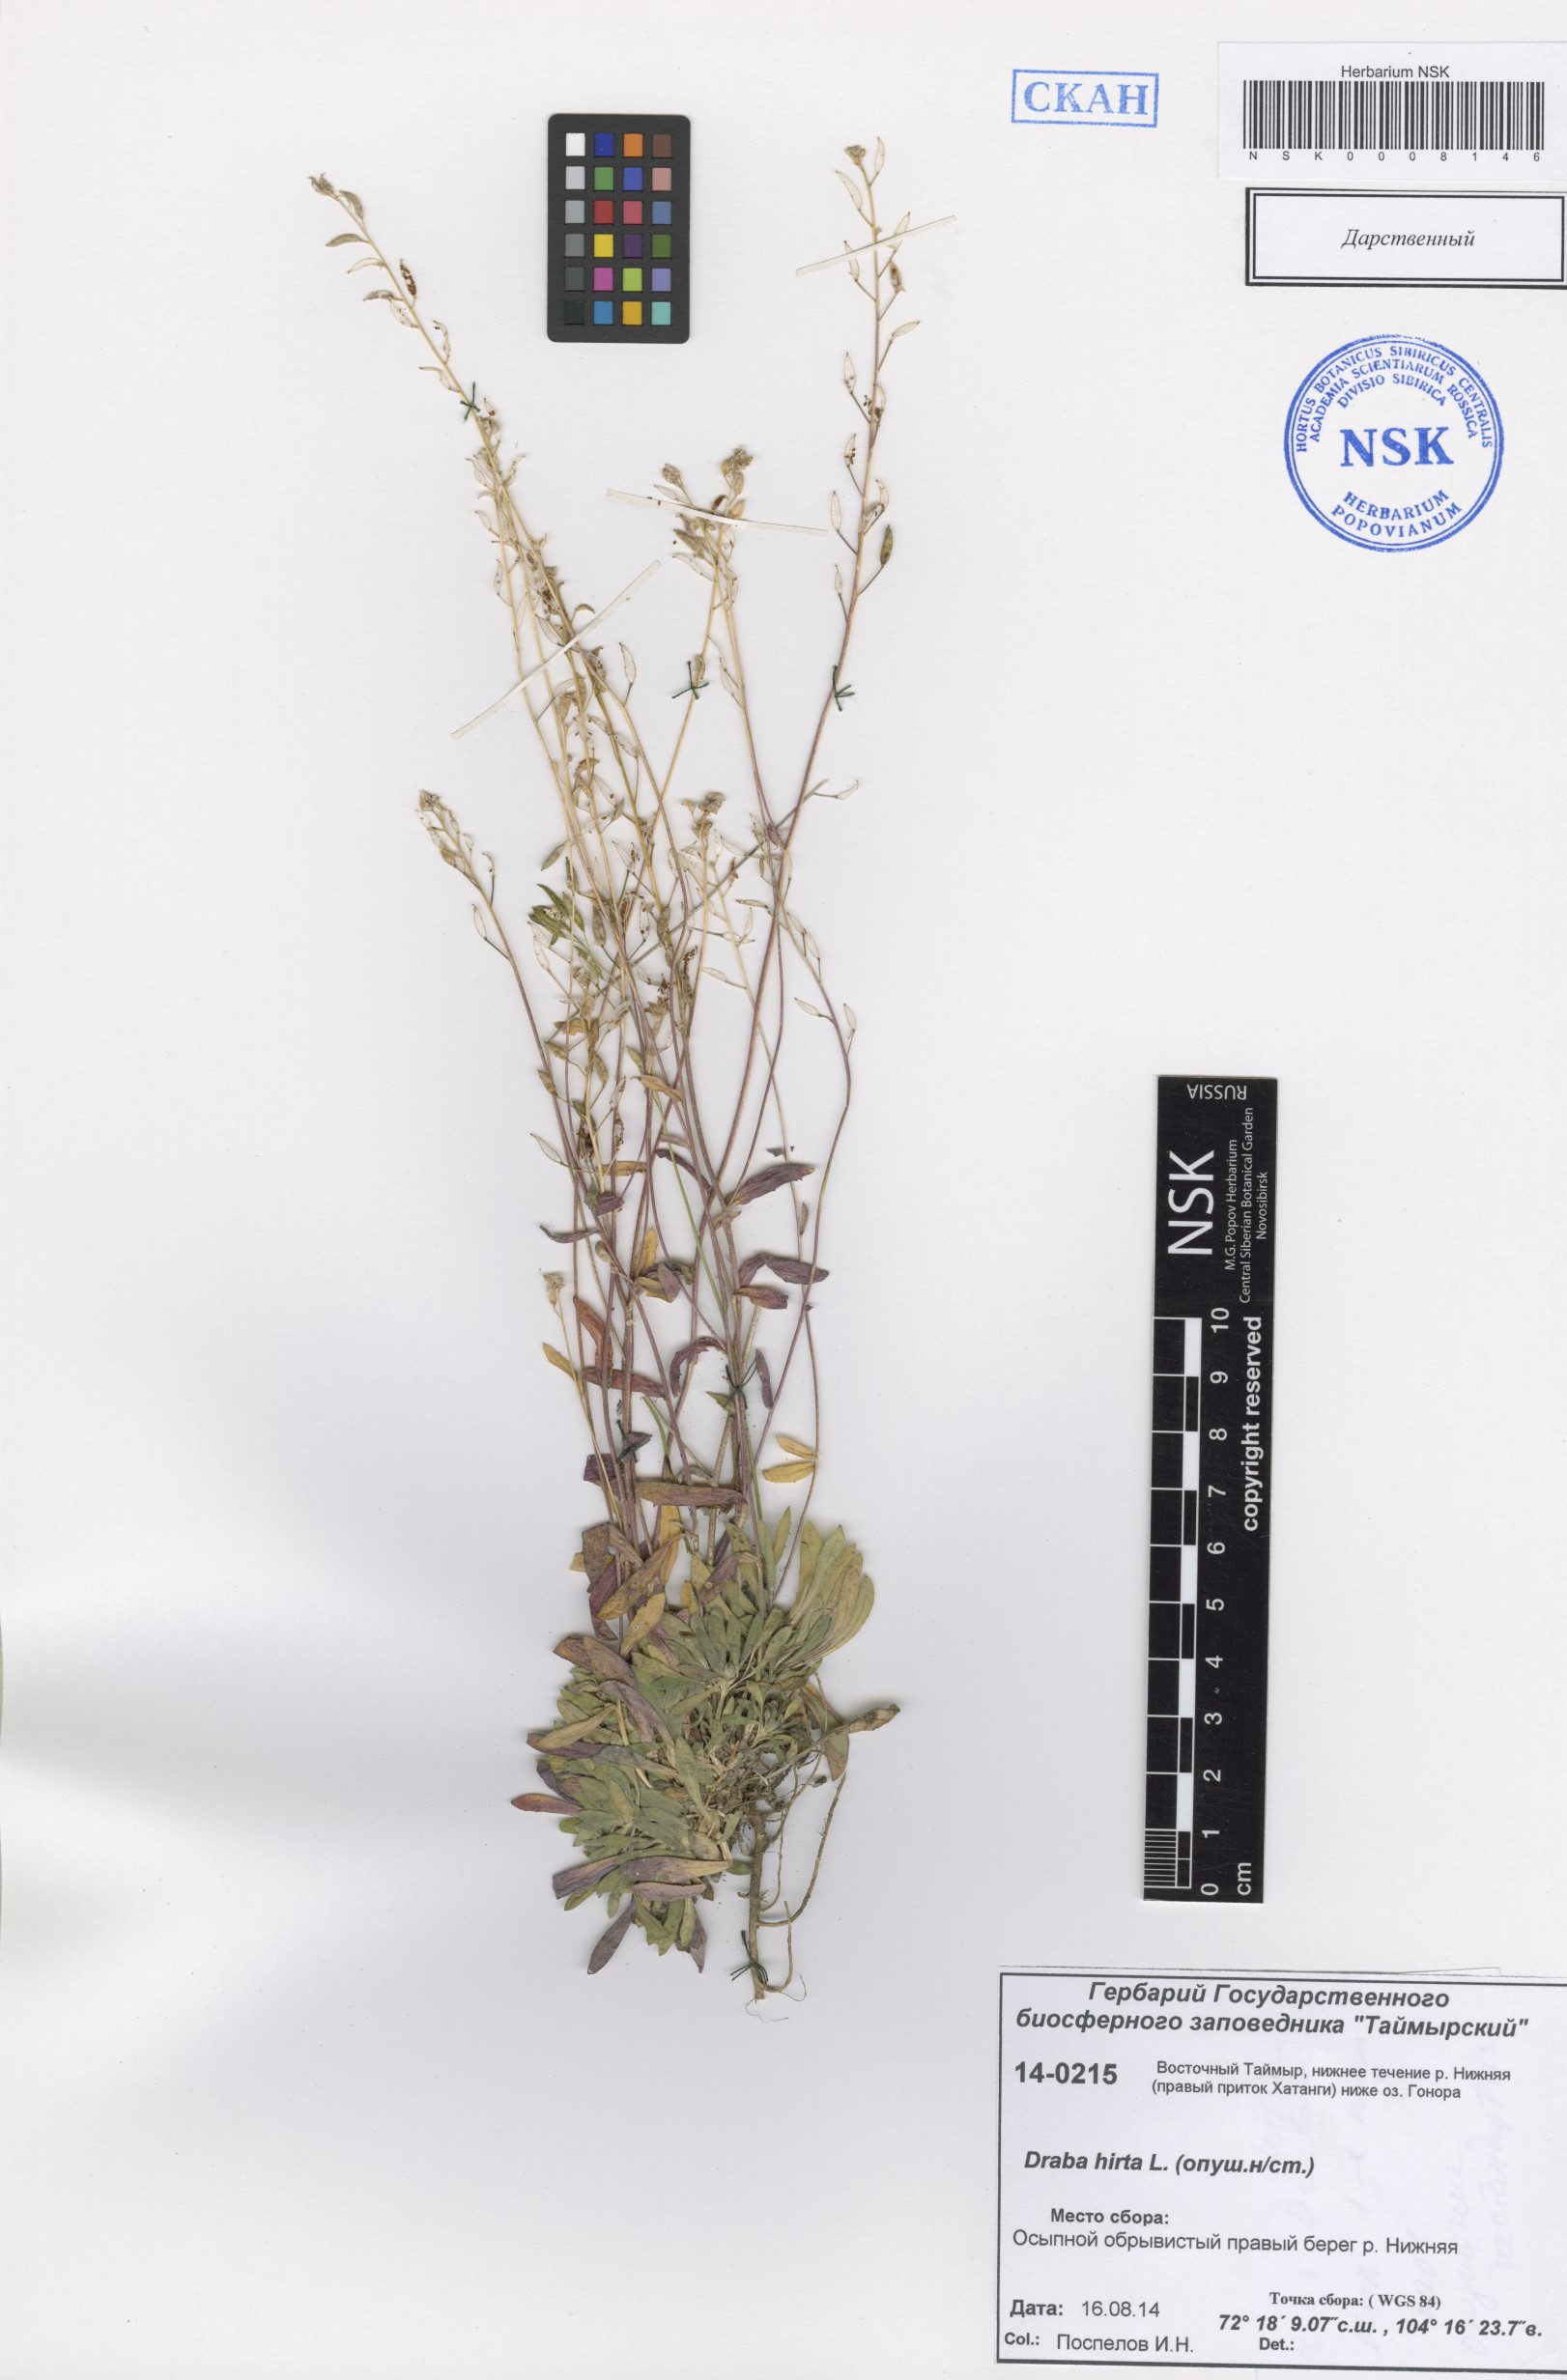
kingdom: Plantae
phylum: Tracheophyta
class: Magnoliopsida
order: Brassicales
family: Brassicaceae
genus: Draba
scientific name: Draba glabella
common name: Glaucous draba
